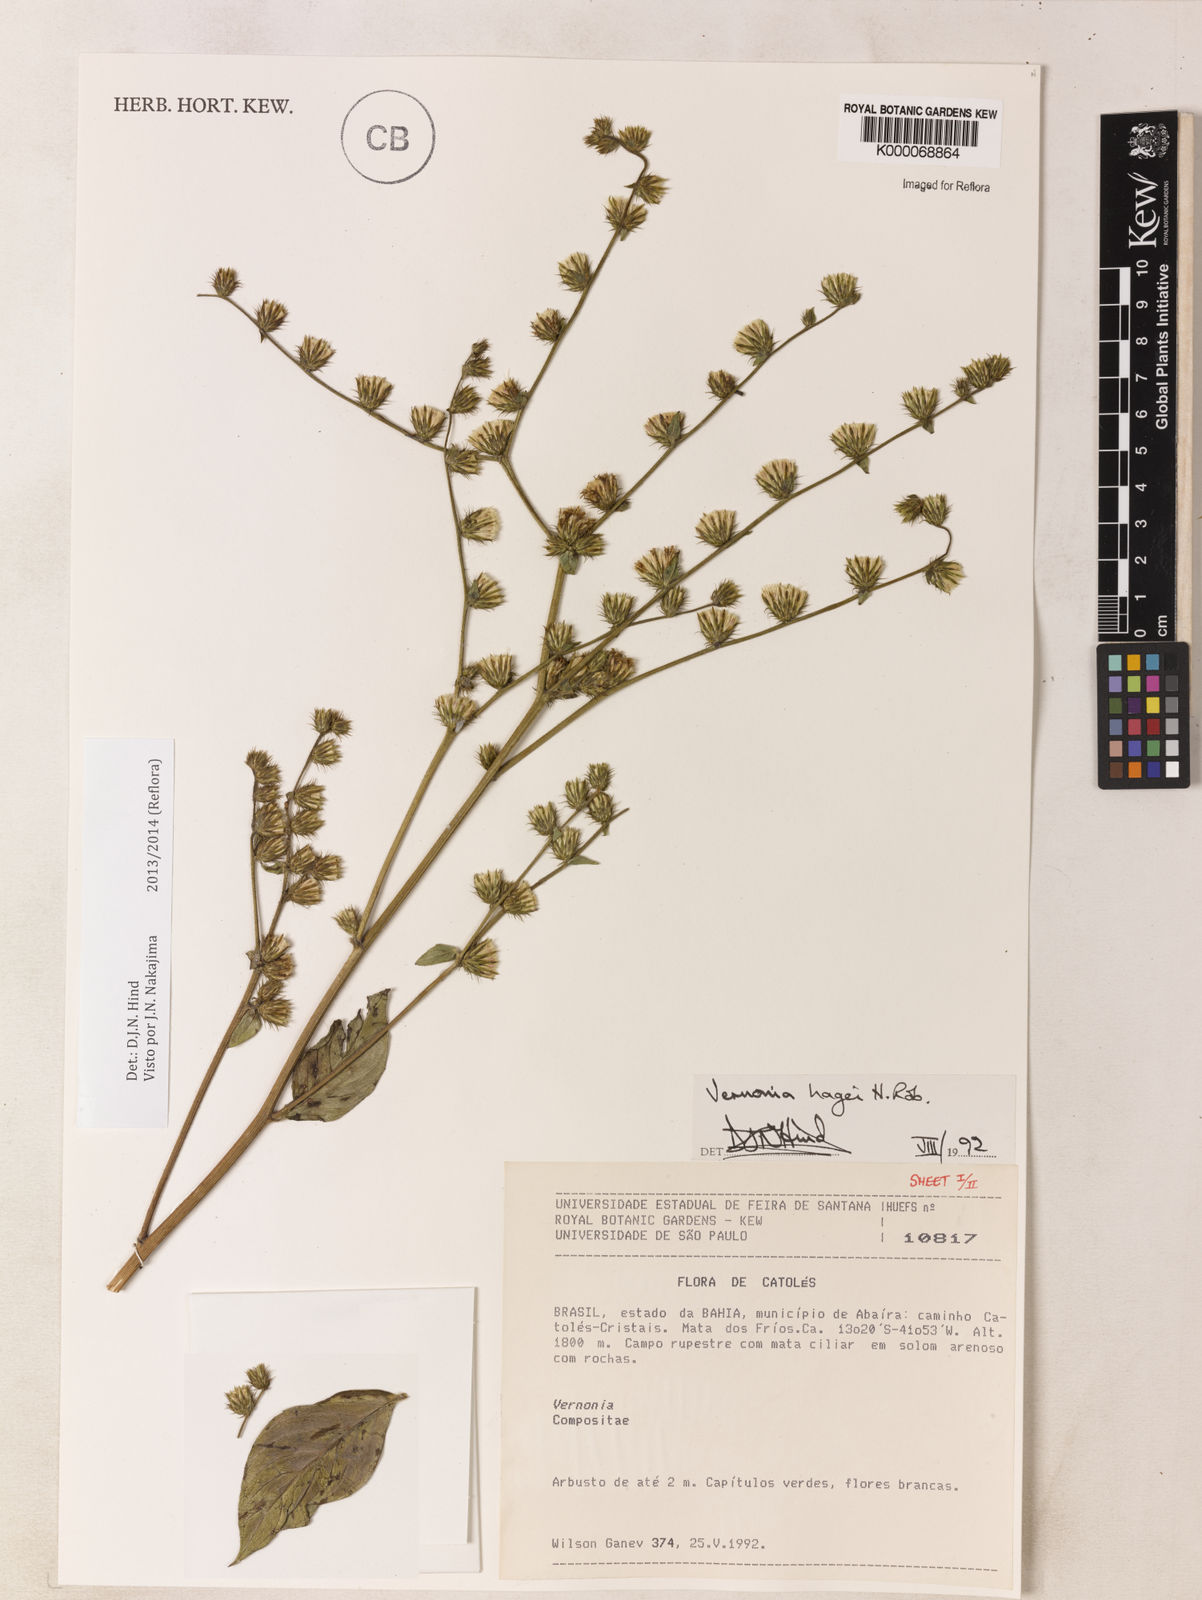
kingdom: Plantae
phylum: Tracheophyta
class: Magnoliopsida
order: Asterales
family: Asteraceae
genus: Lepidaploa
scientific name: Lepidaploa hagei
